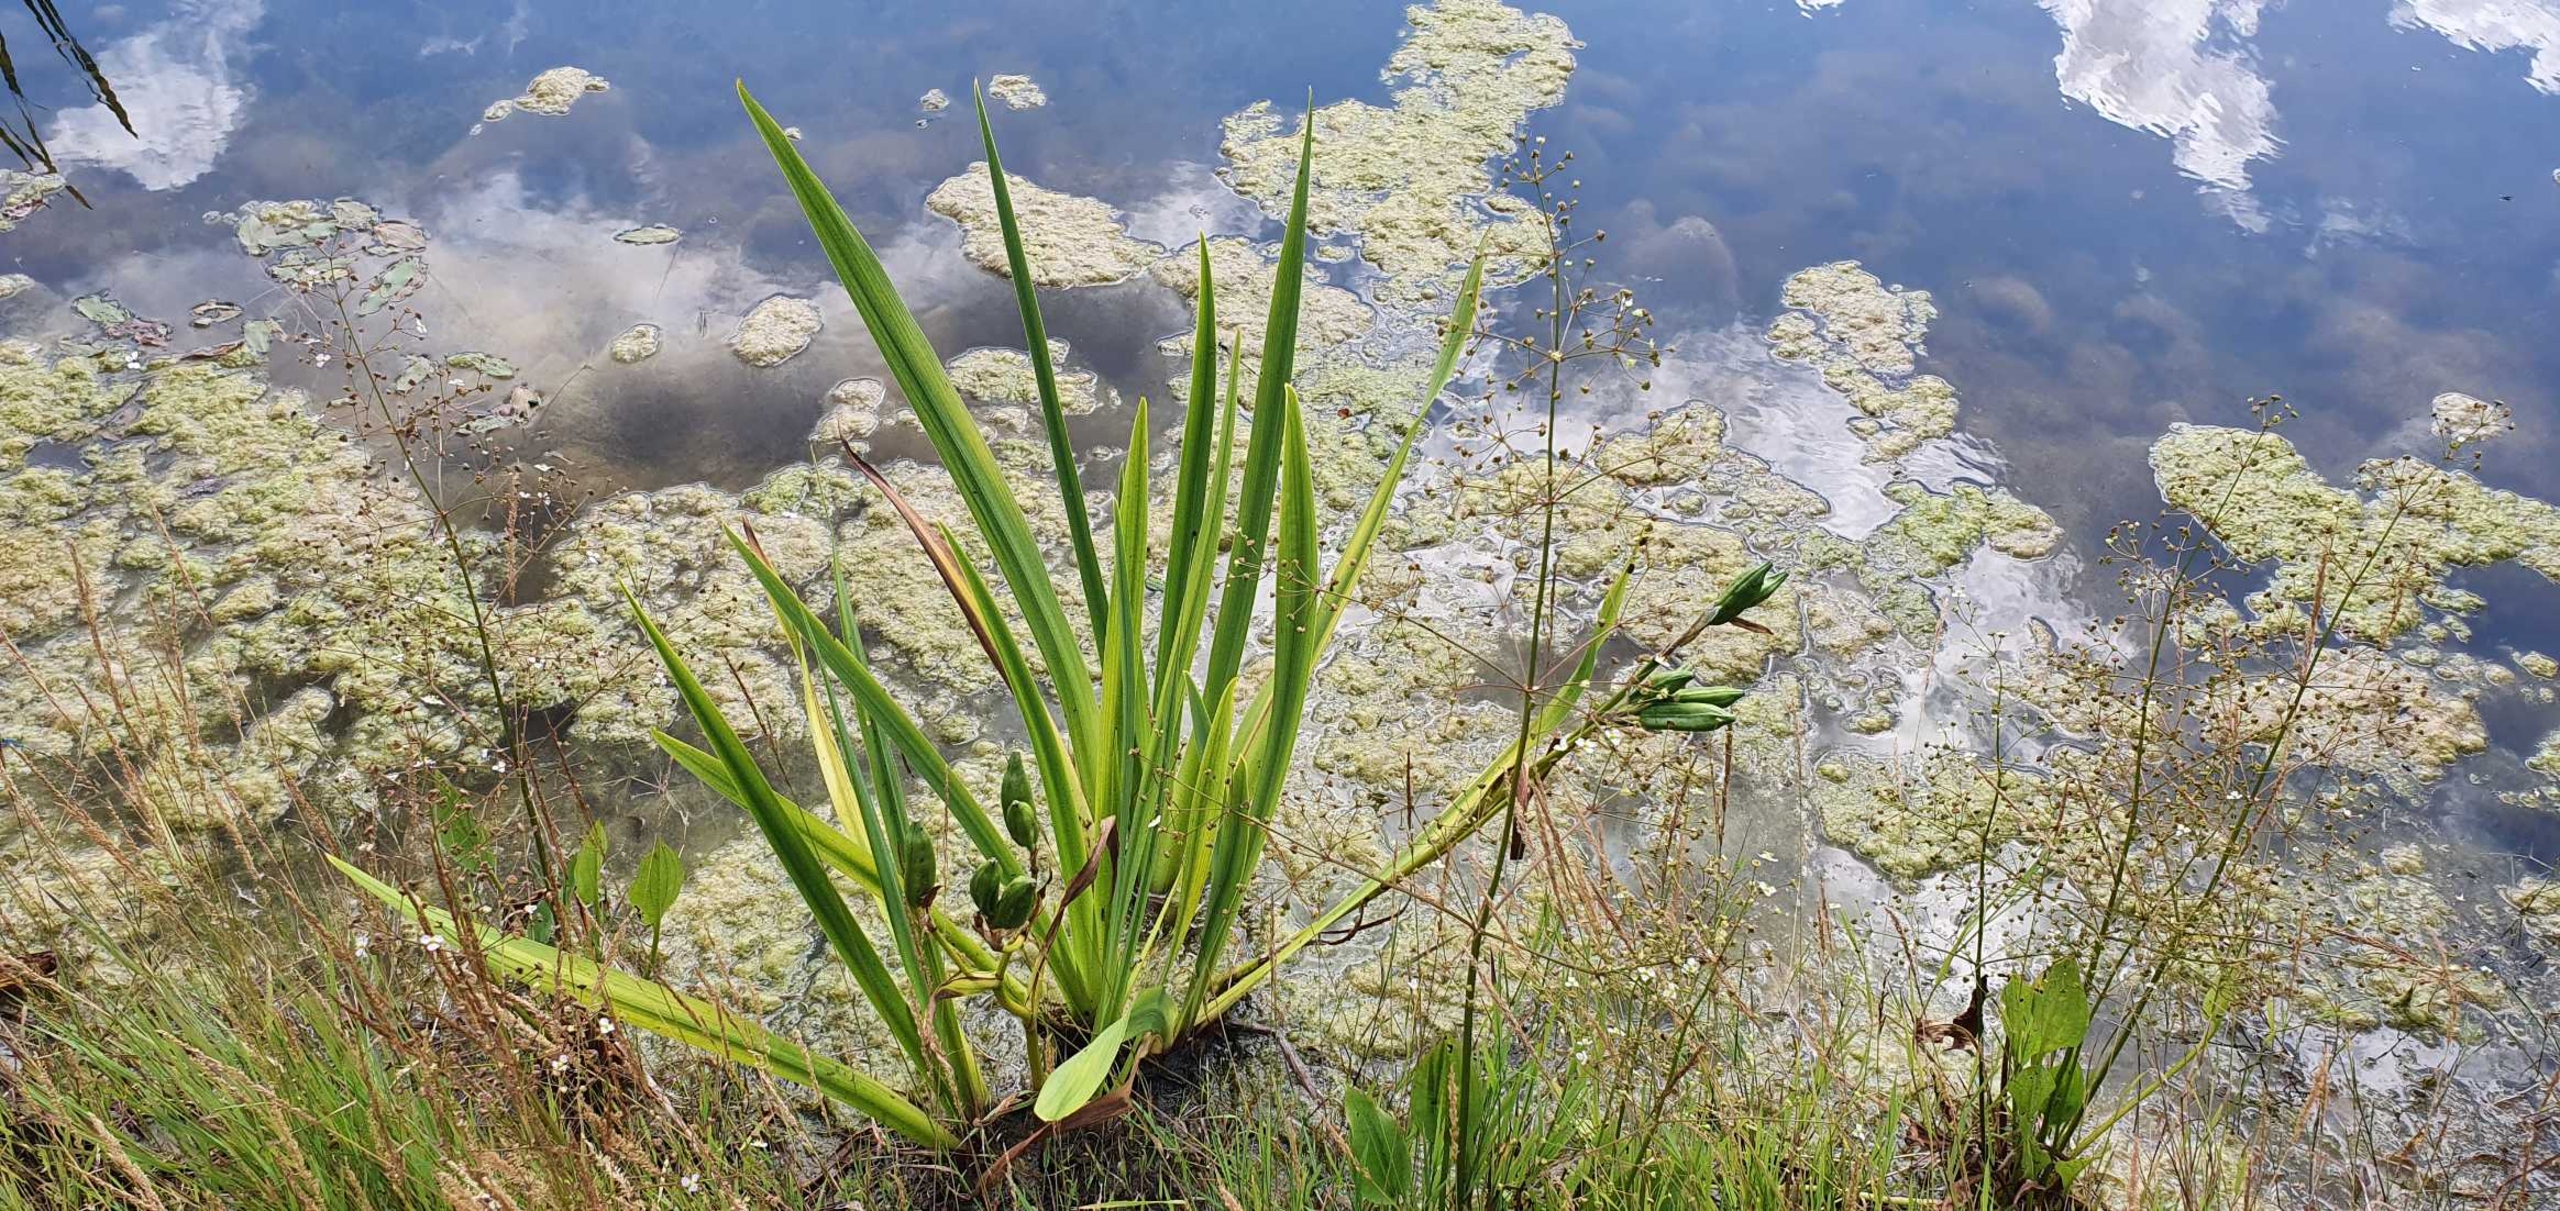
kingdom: Plantae
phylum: Tracheophyta
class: Liliopsida
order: Asparagales
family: Iridaceae
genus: Iris
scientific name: Iris pseudacorus
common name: Gul iris
